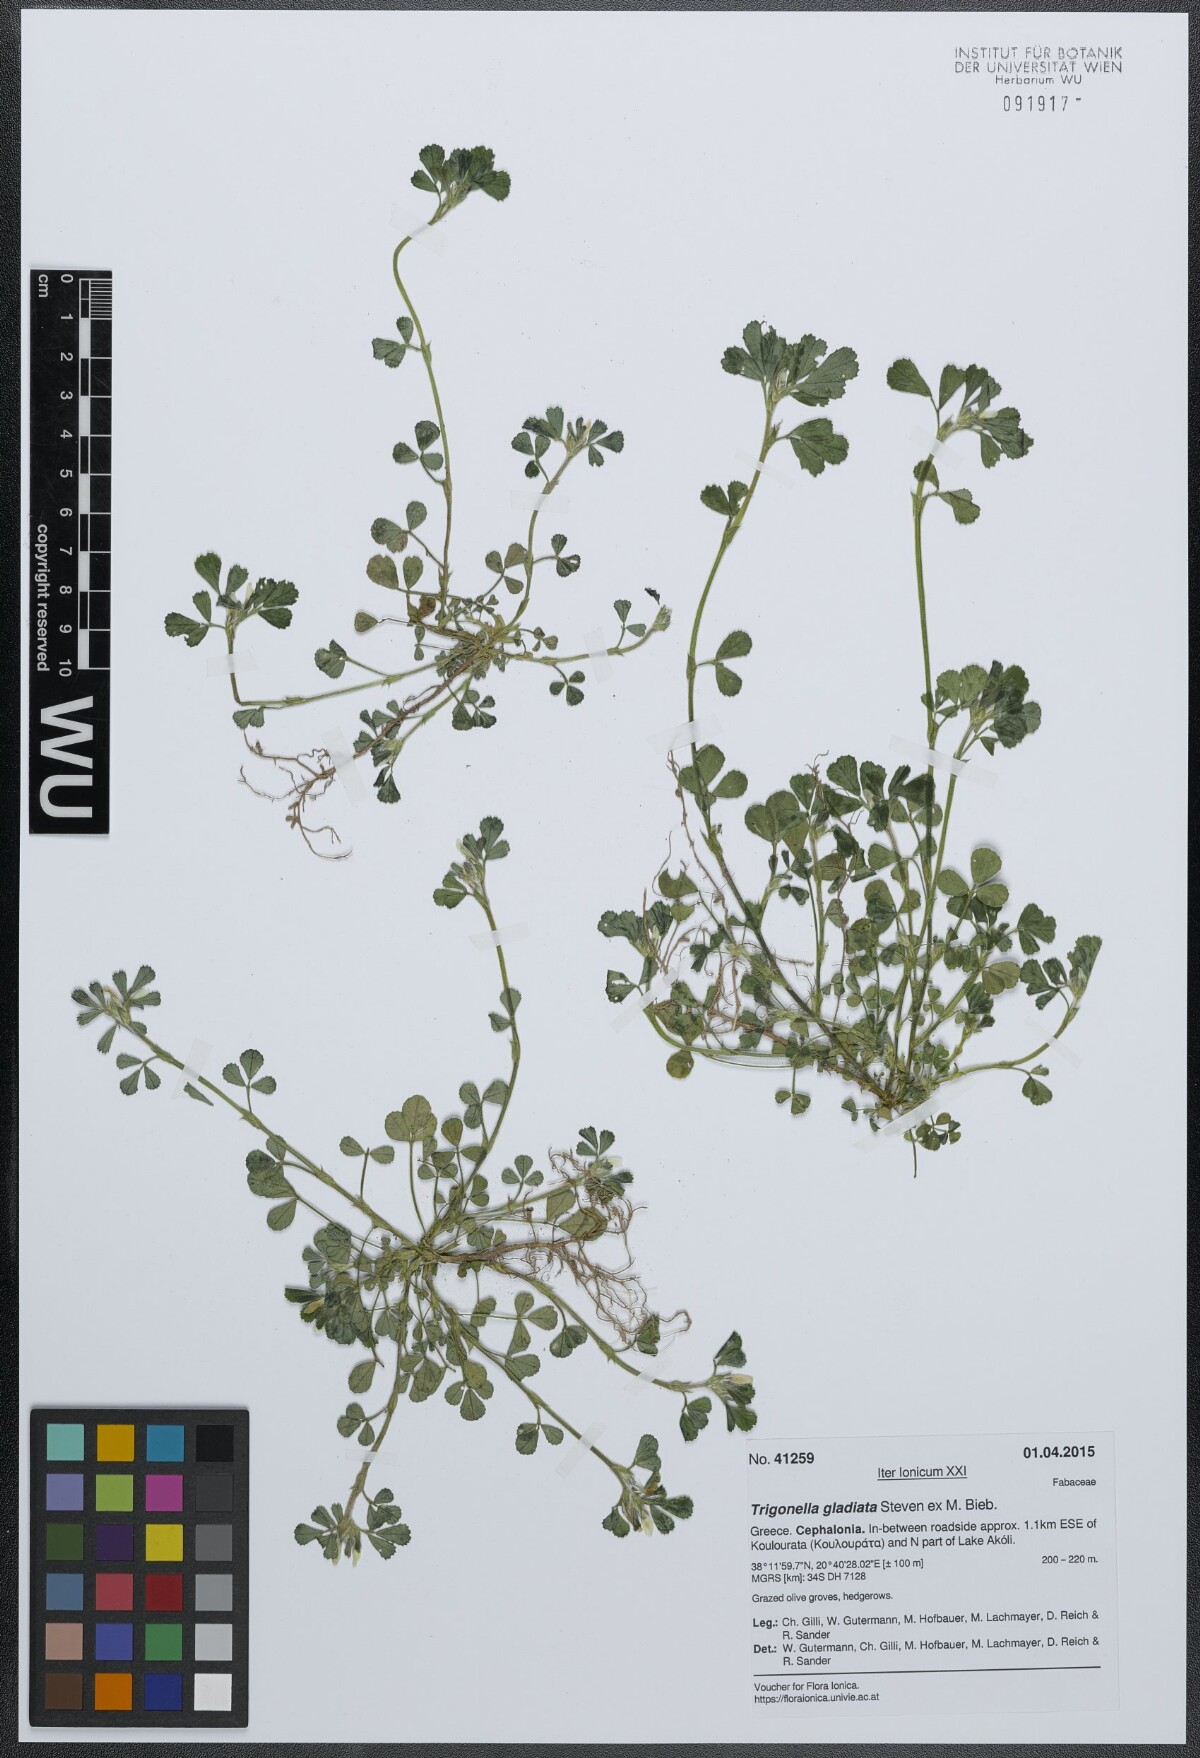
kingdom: Plantae
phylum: Tracheophyta
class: Magnoliopsida
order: Fabales
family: Fabaceae
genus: Trigonella
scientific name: Trigonella gladiata
